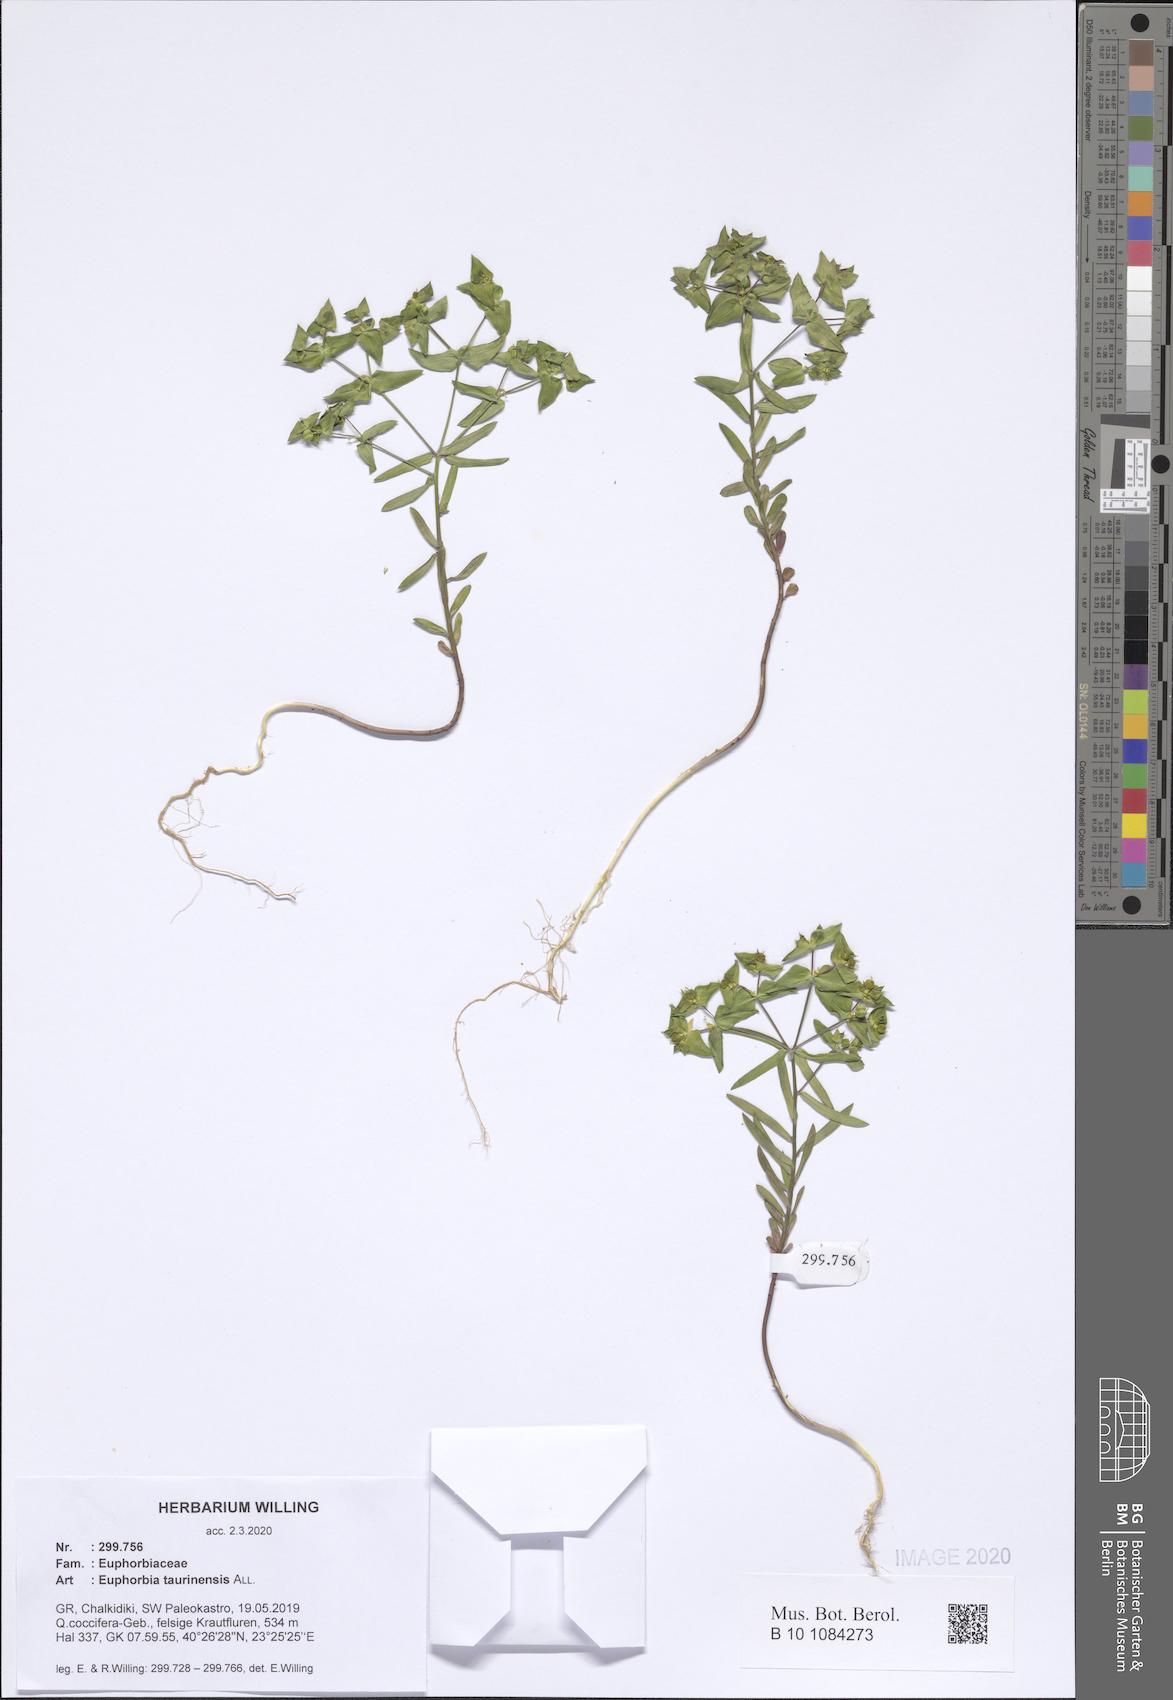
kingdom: Plantae
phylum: Tracheophyta
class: Magnoliopsida
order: Malpighiales
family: Euphorbiaceae
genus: Euphorbia
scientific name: Euphorbia taurinensis
